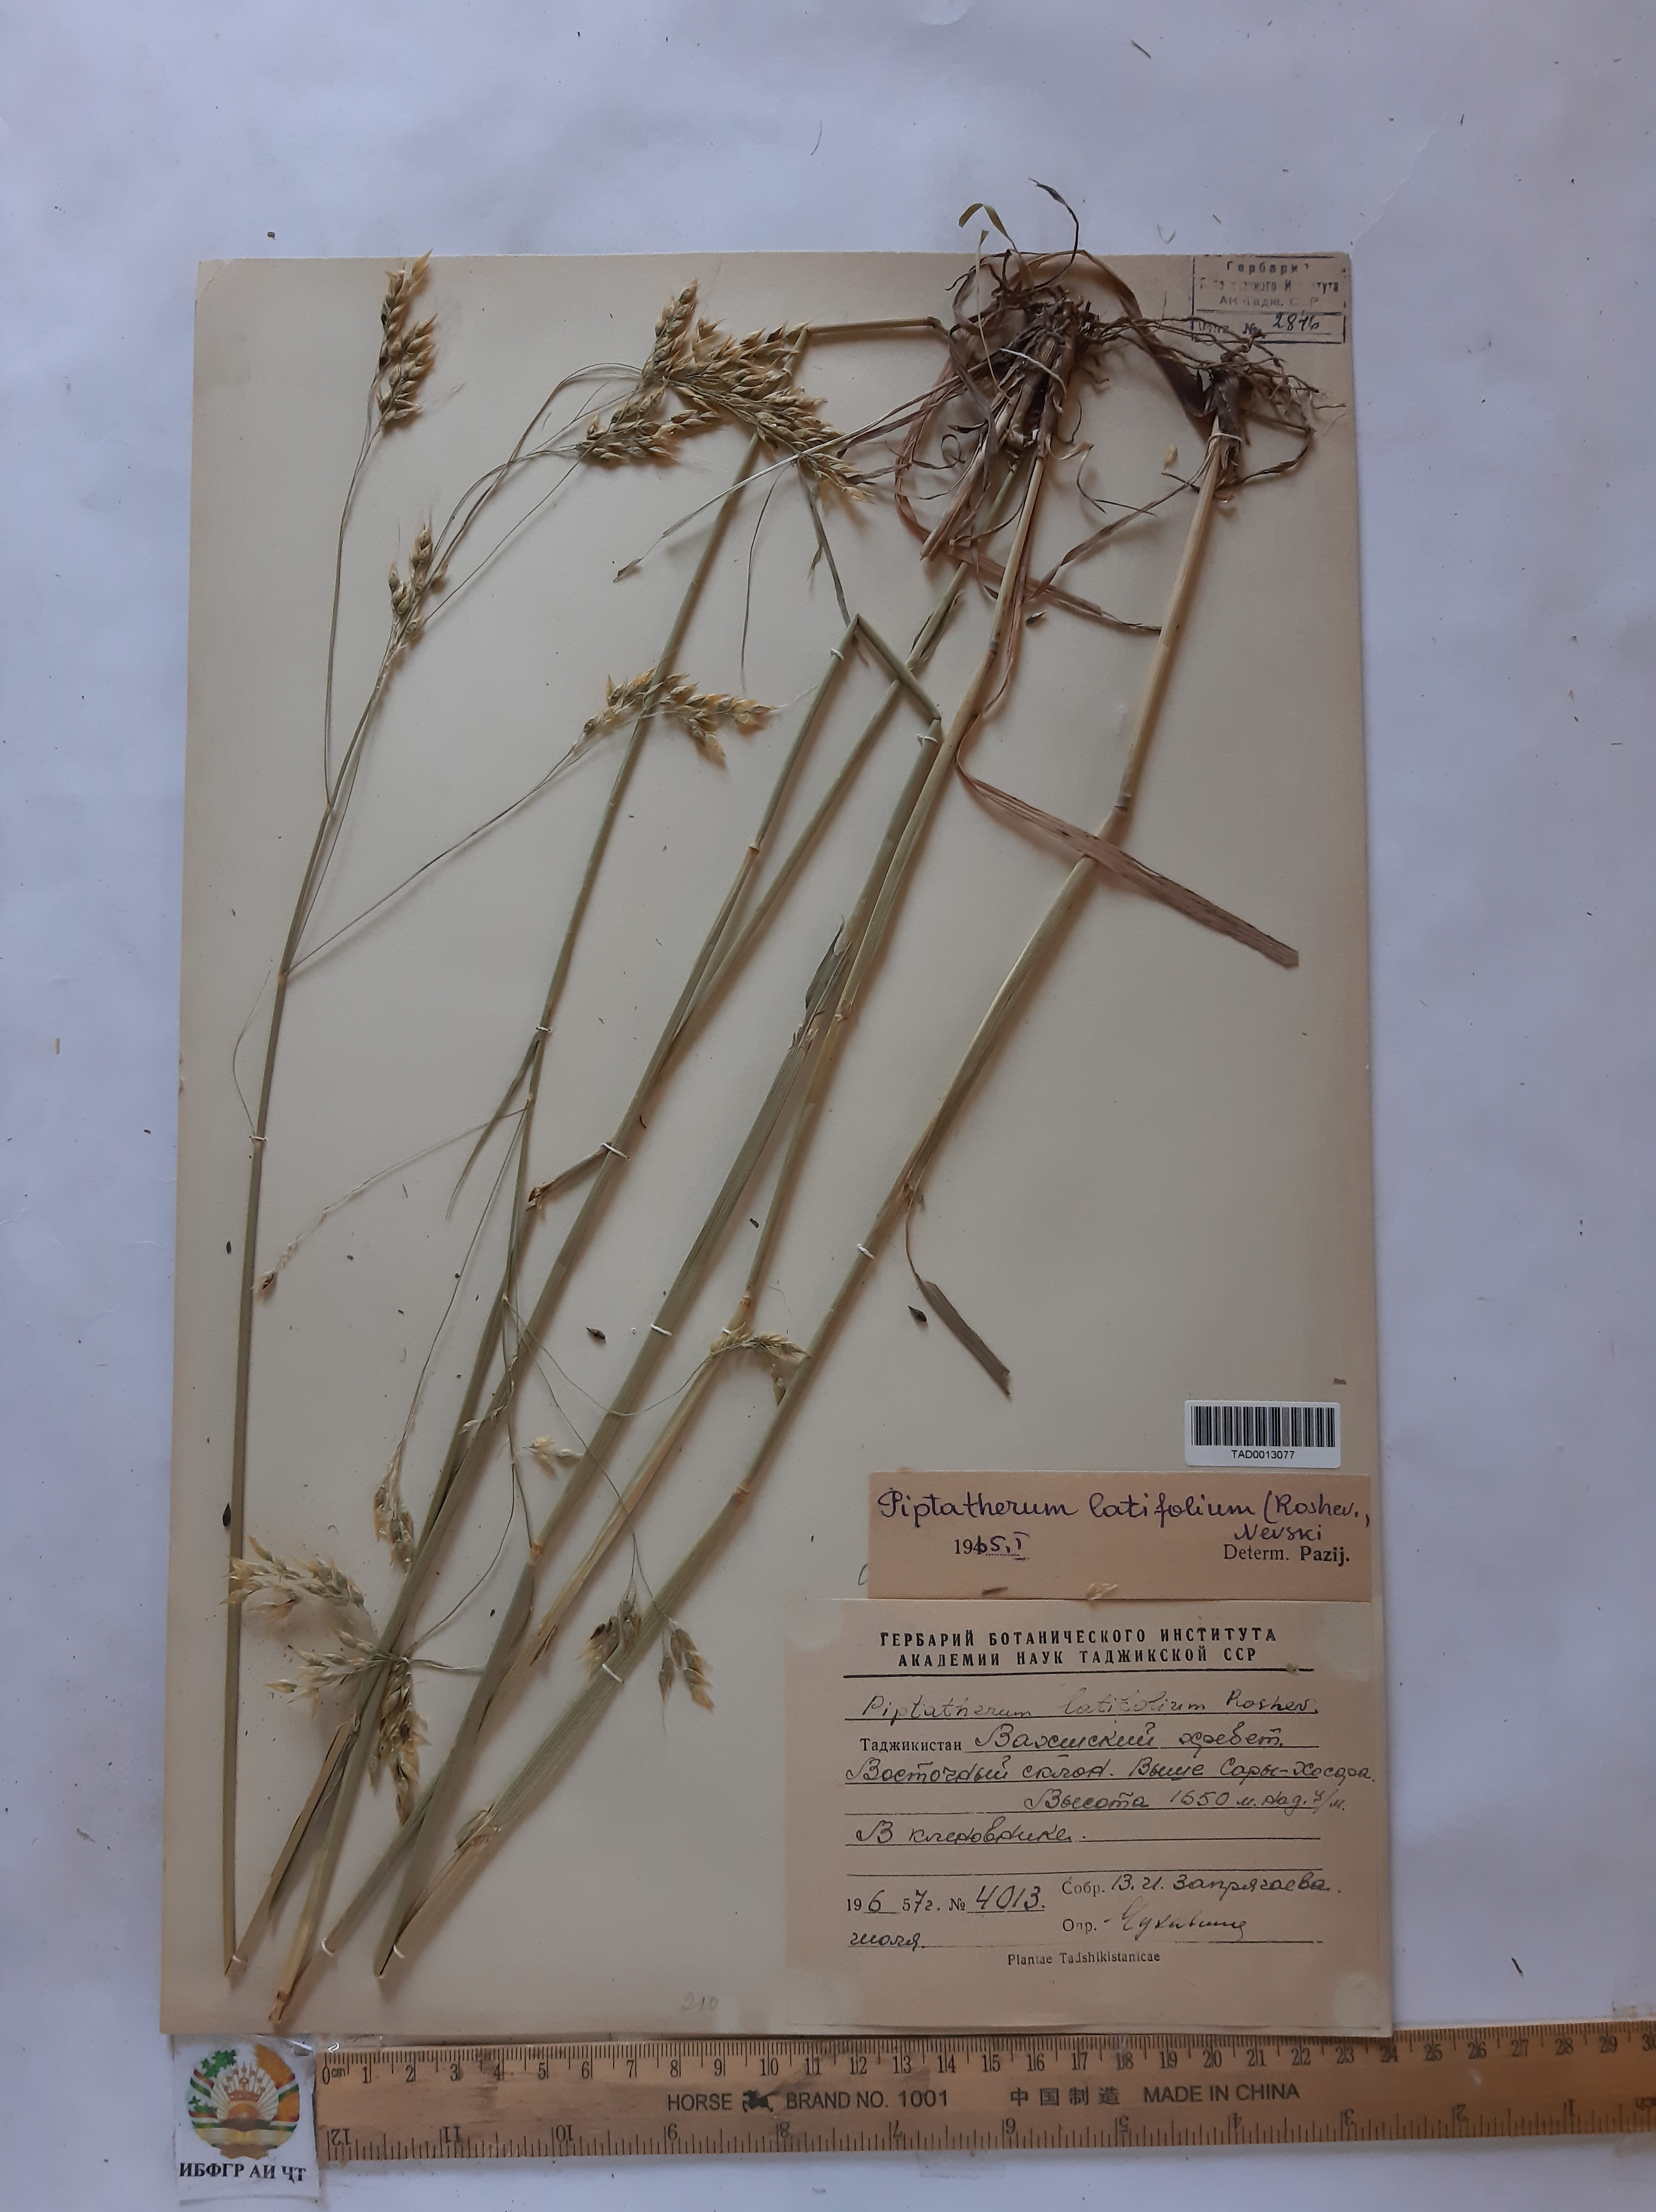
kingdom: Plantae
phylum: Tracheophyta
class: Liliopsida
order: Poales
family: Poaceae
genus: Piptatherum
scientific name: Piptatherum laterale
